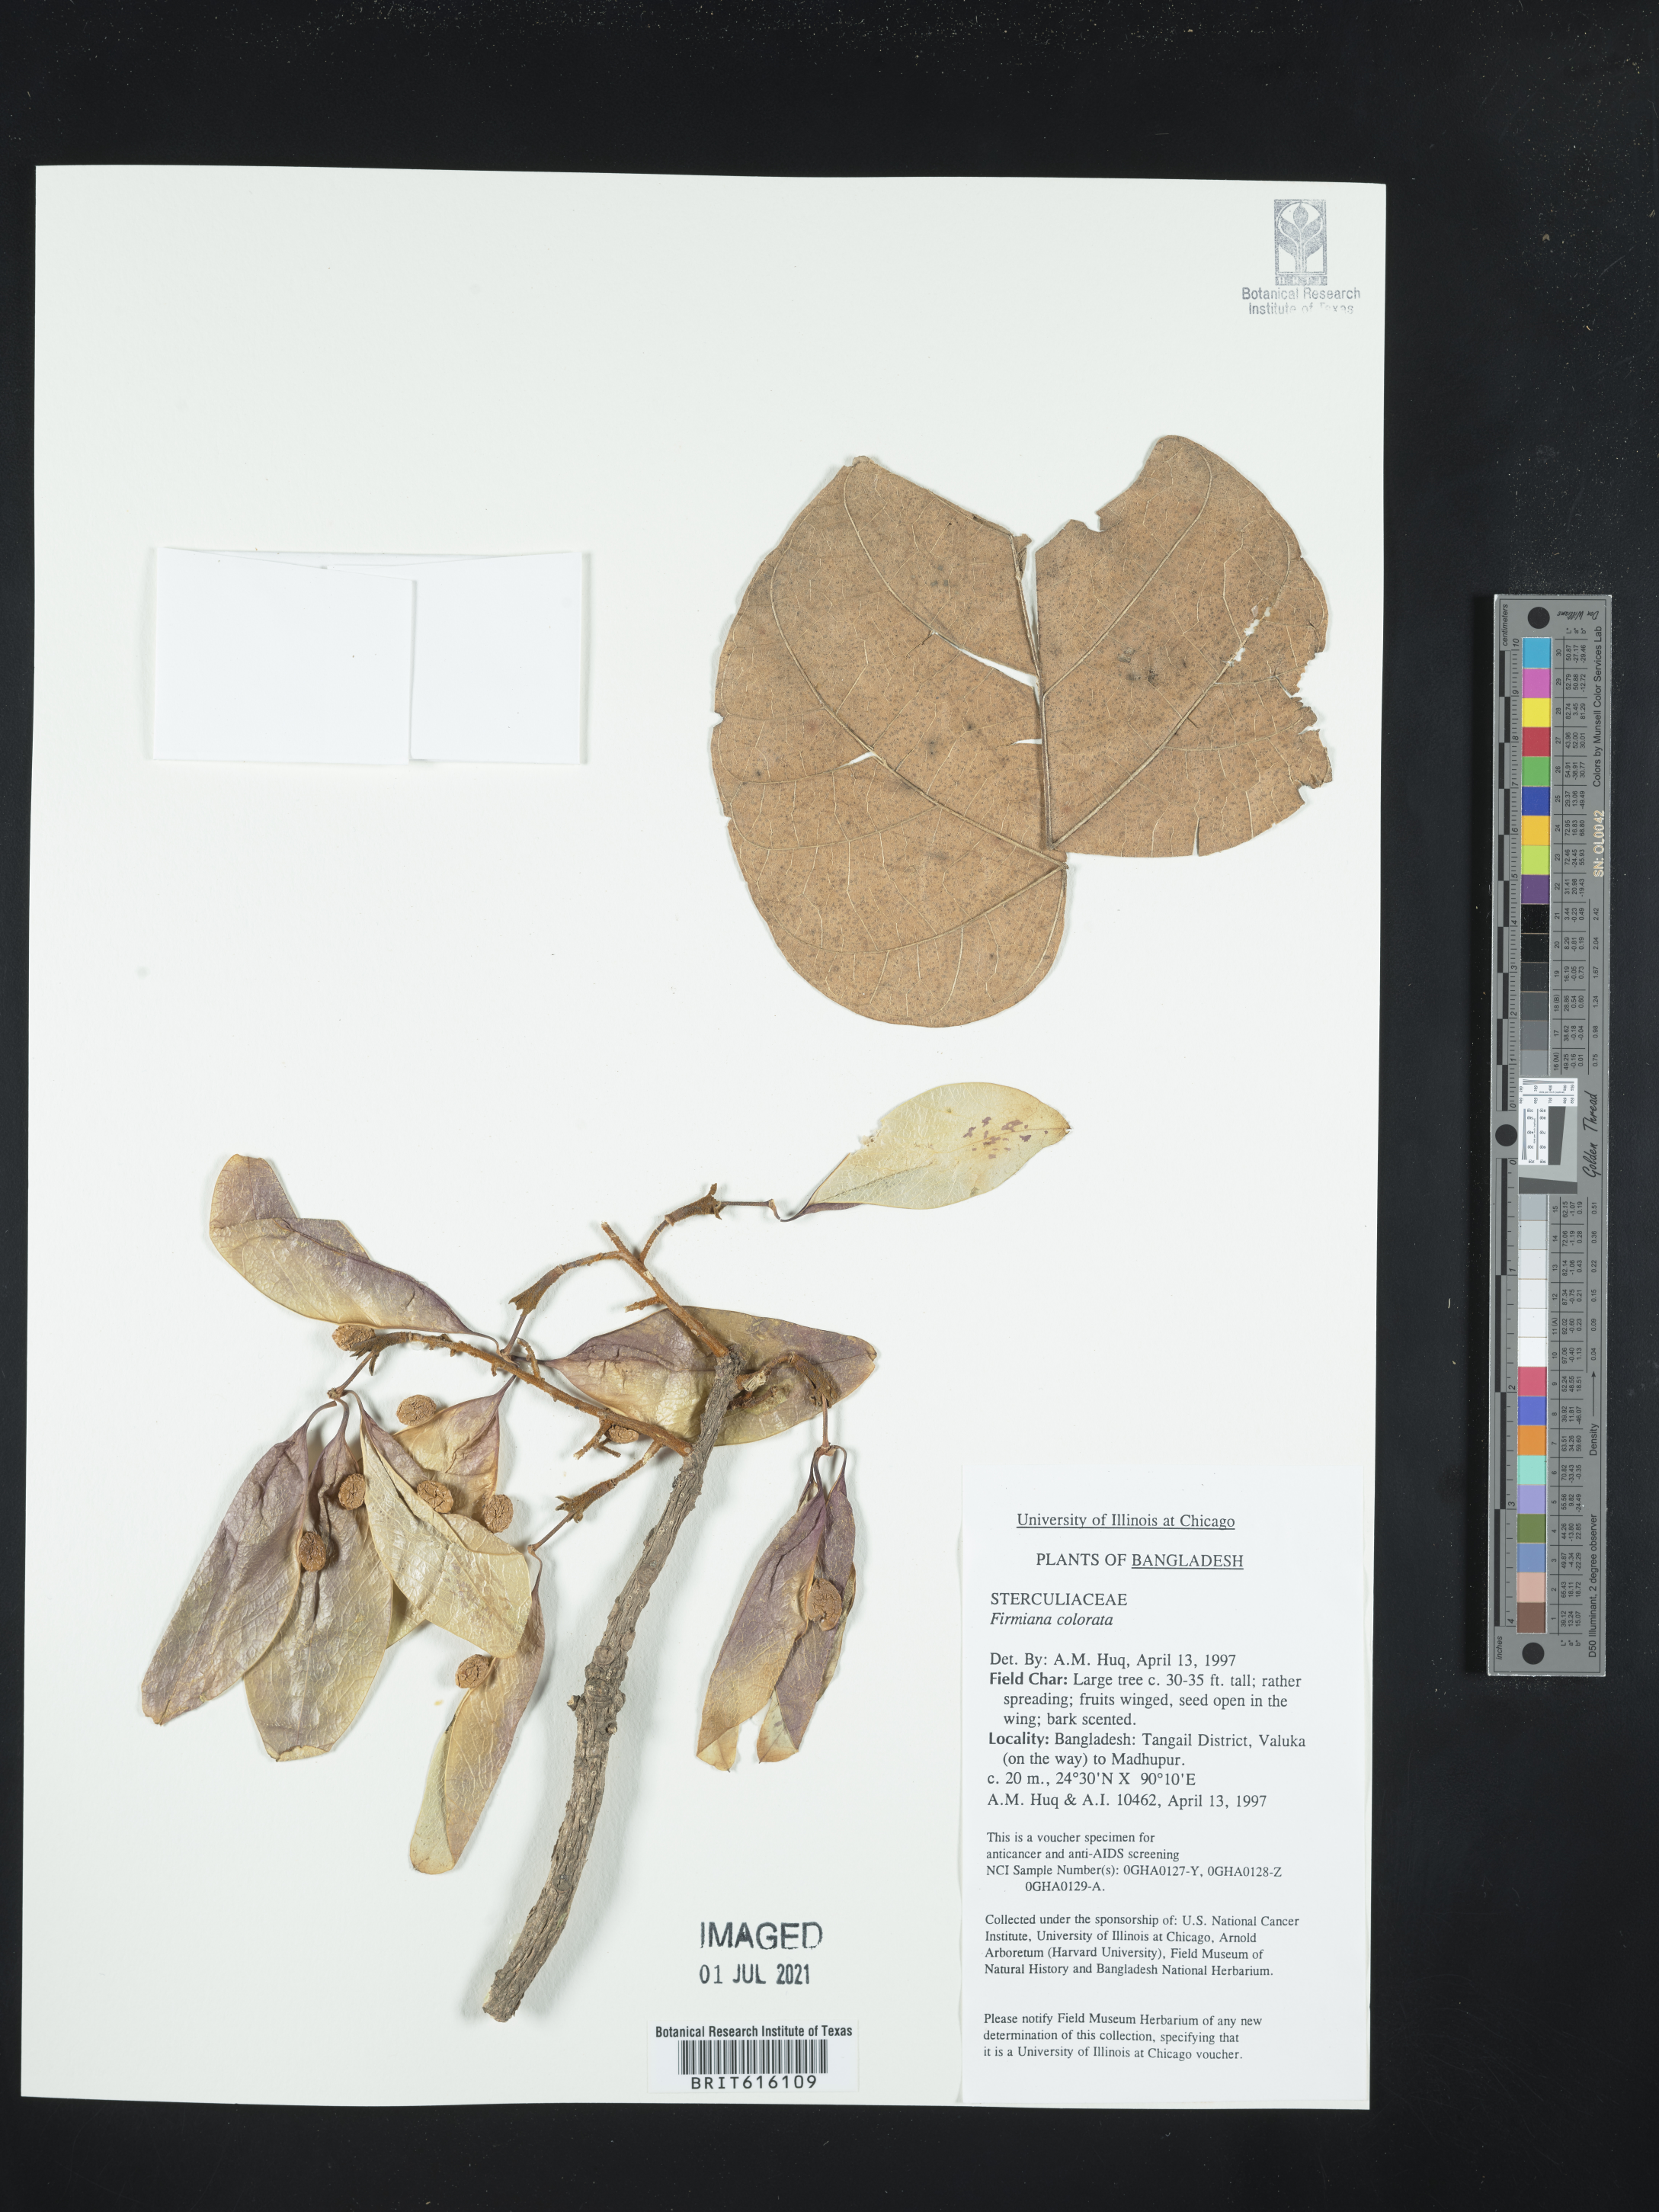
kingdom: Plantae
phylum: Tracheophyta
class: Magnoliopsida
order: Malvales
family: Malvaceae
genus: Firmiana
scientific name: Firmiana colorata
